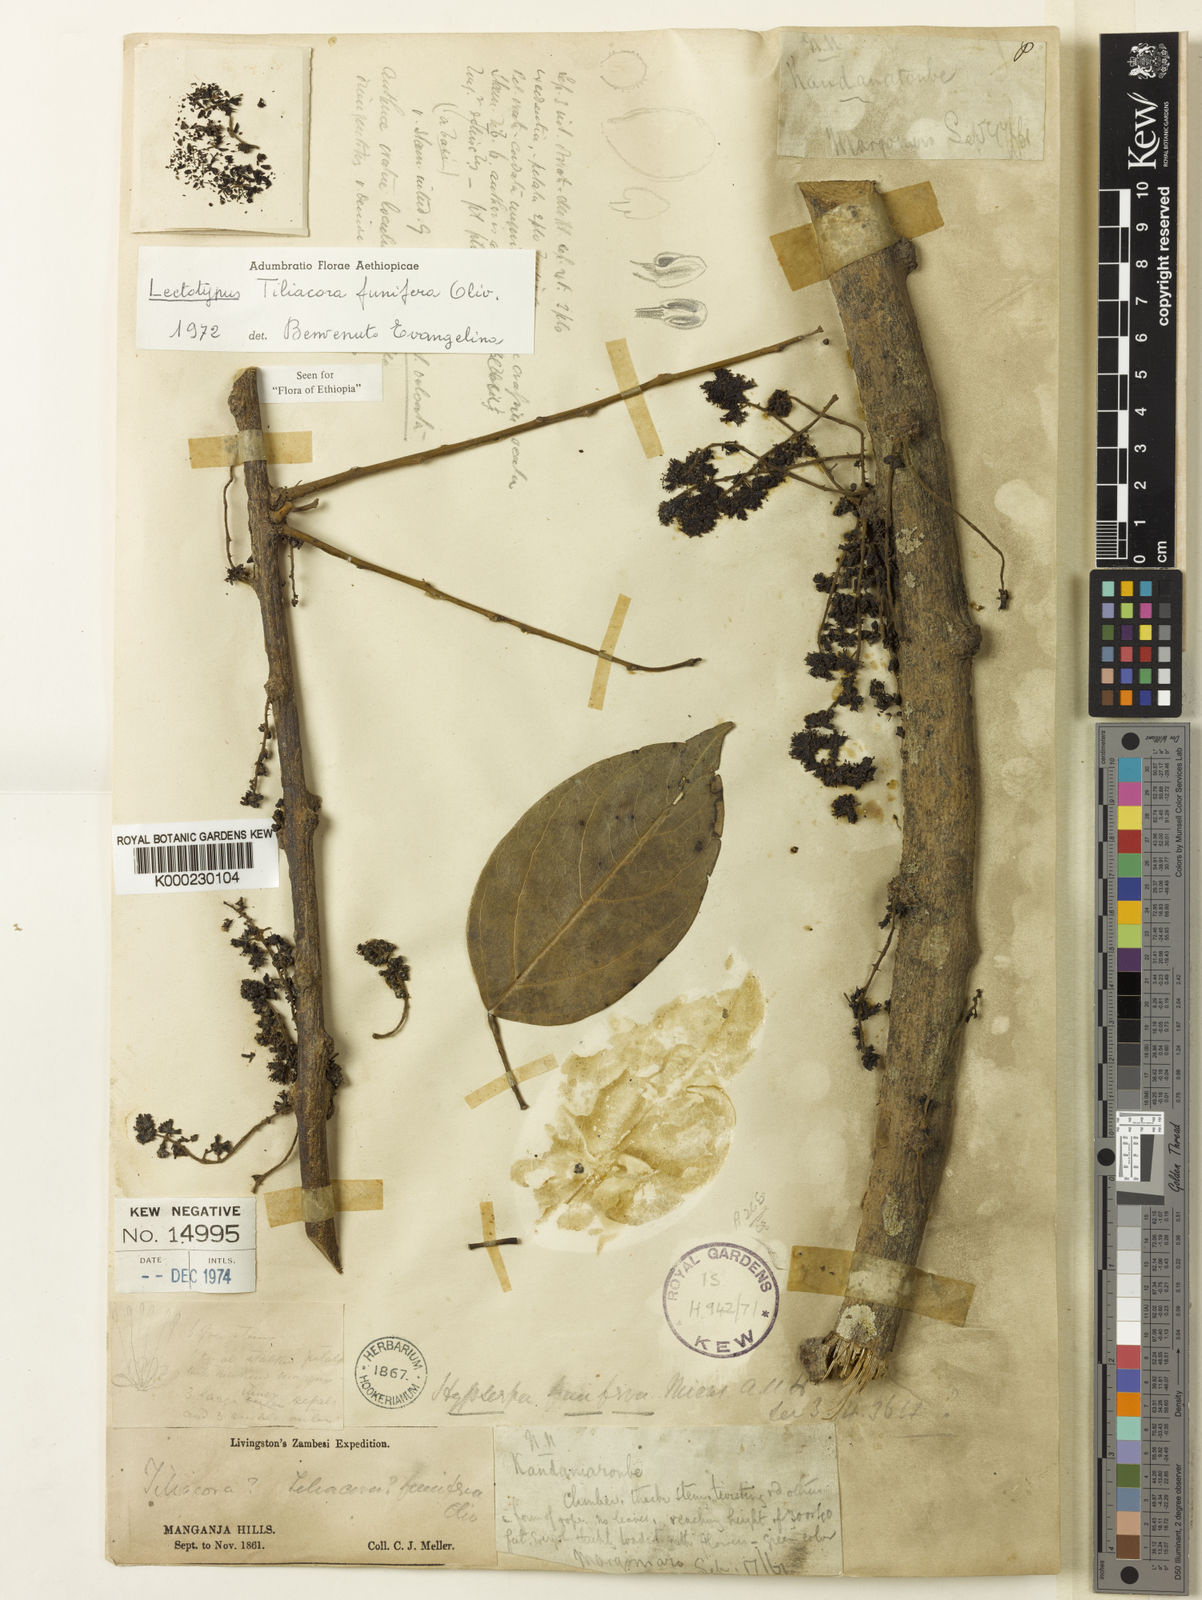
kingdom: Plantae
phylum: Tracheophyta
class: Magnoliopsida
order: Ranunculales
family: Menispermaceae
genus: Tiliacora
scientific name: Tiliacora funifera
